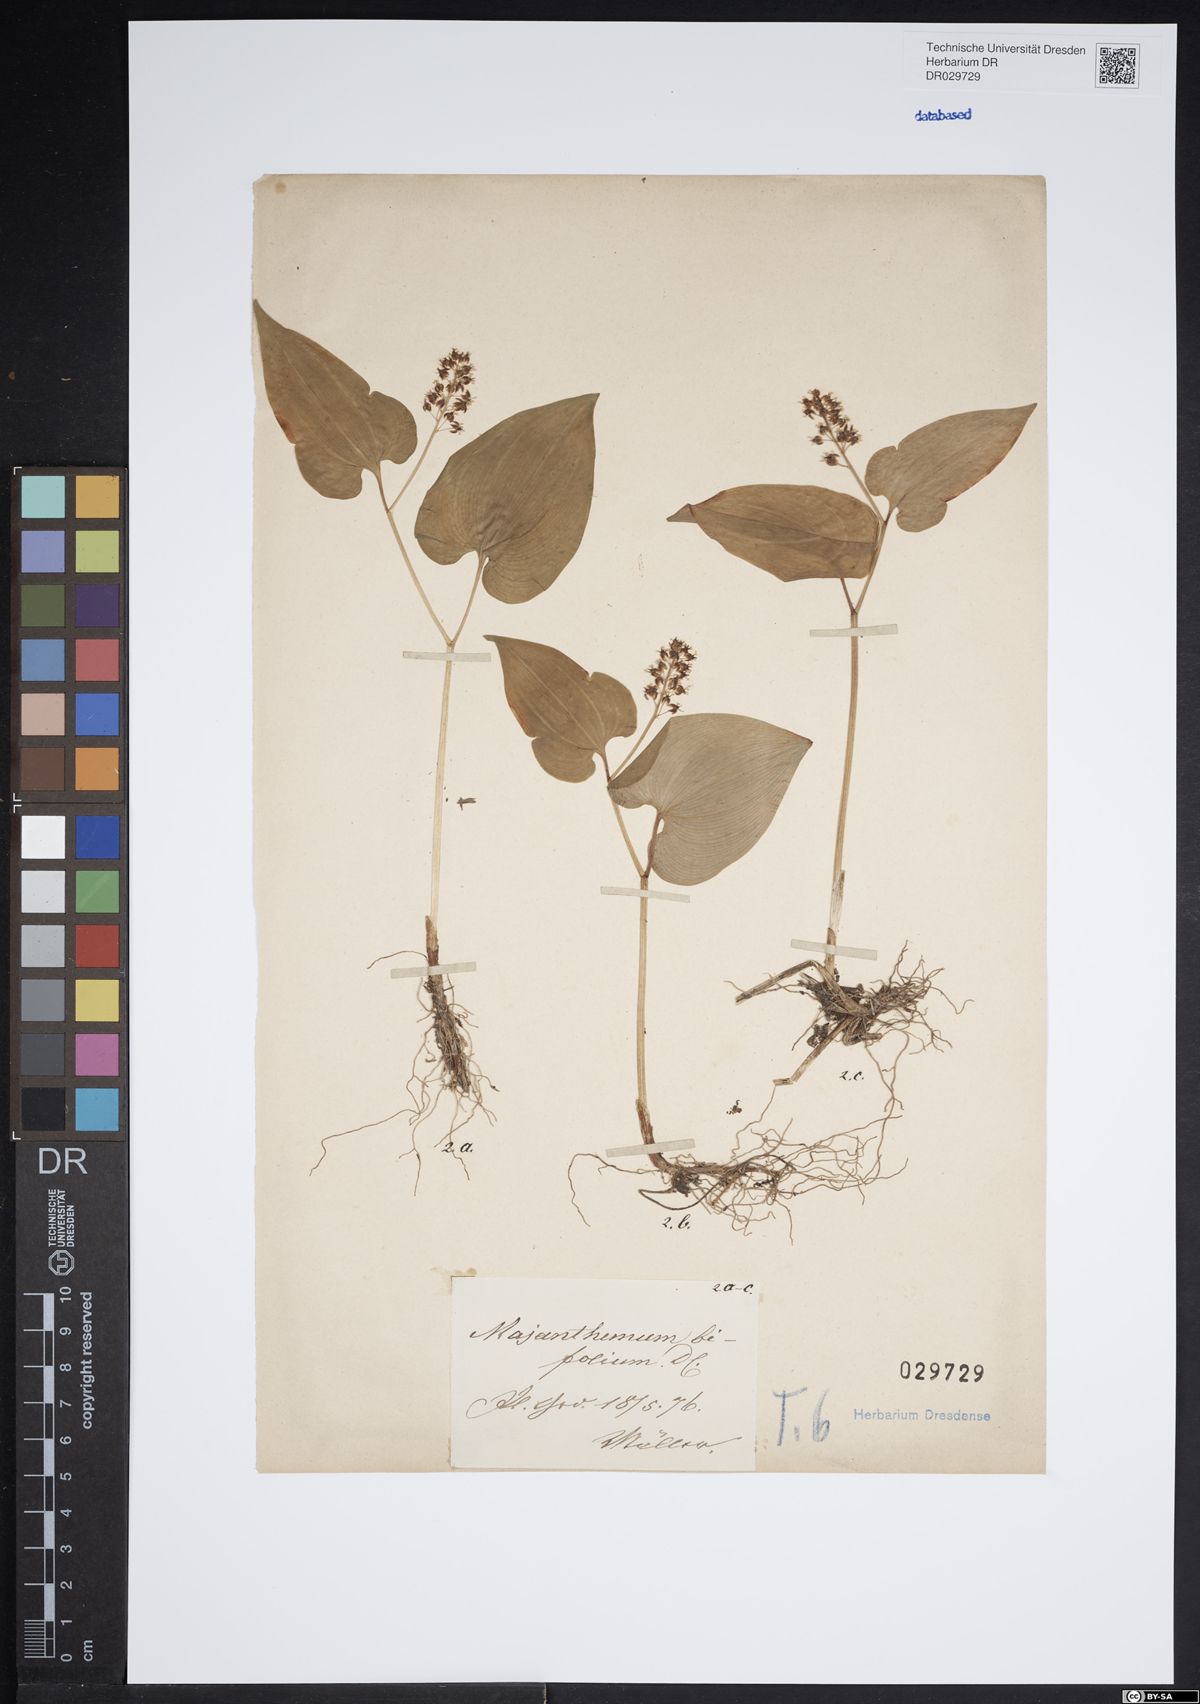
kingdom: Plantae
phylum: Tracheophyta
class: Liliopsida
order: Asparagales
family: Asparagaceae
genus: Maianthemum
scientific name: Maianthemum bifolium
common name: May lily
